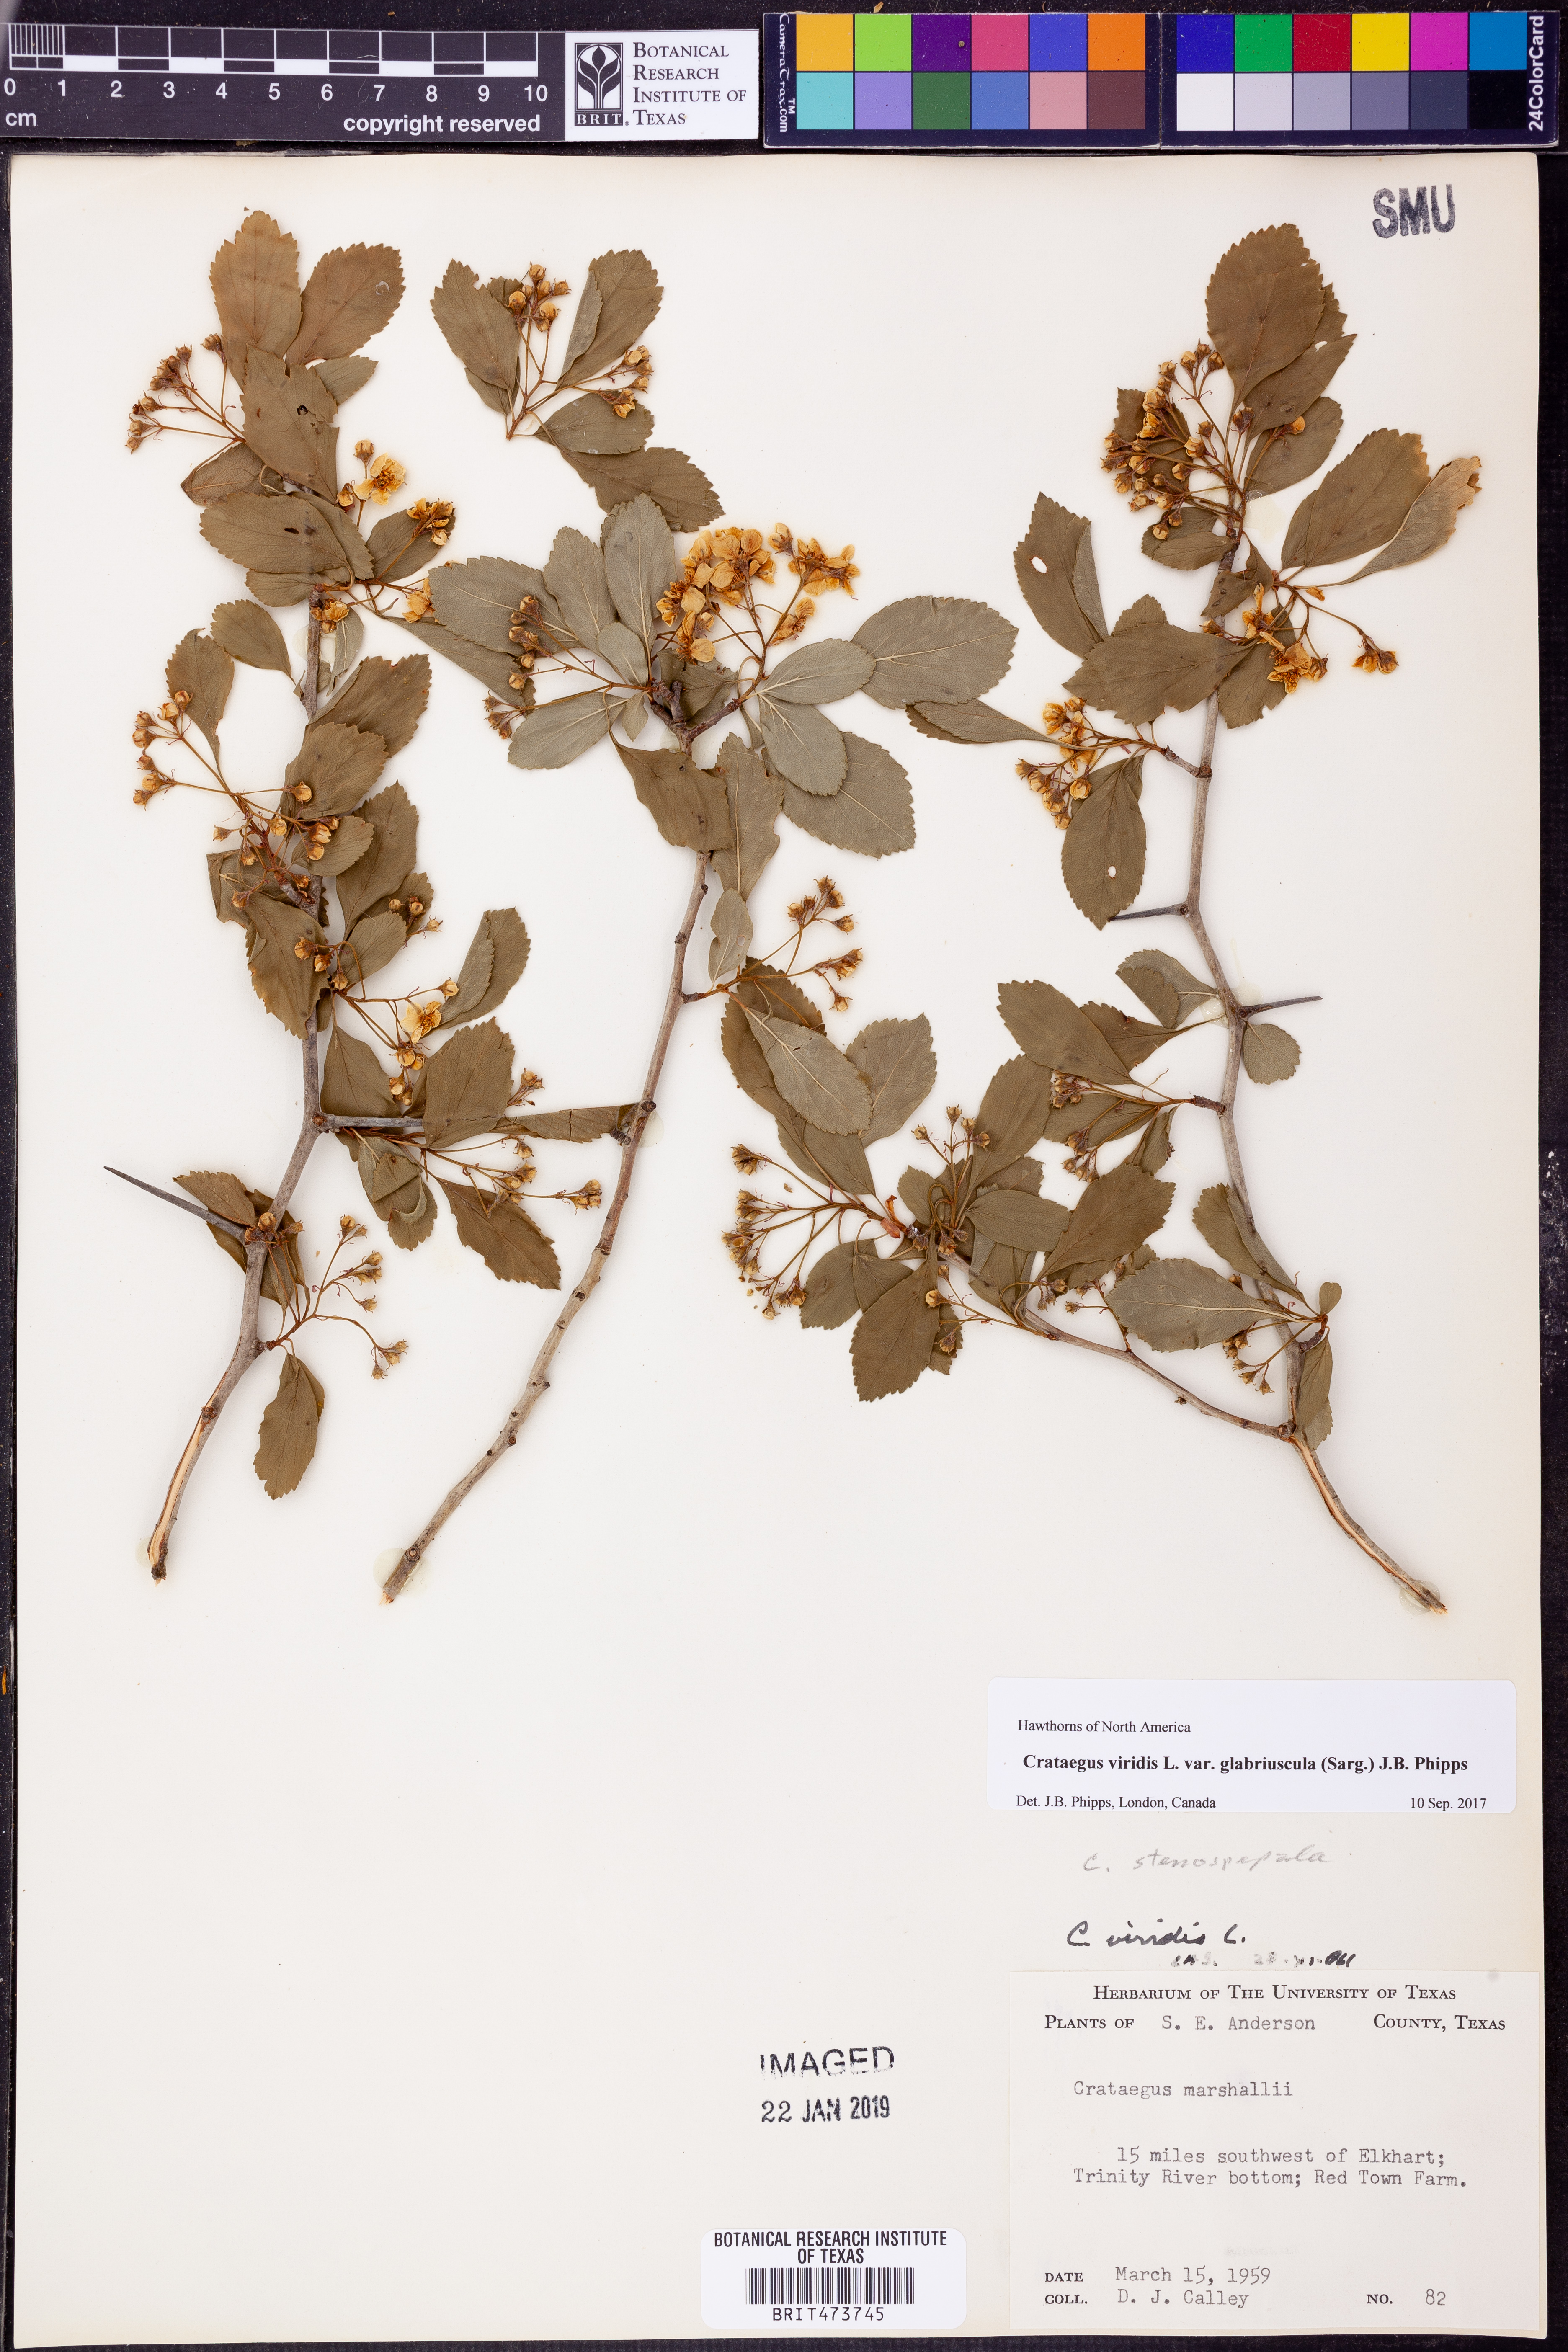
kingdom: Plantae
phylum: Tracheophyta
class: Magnoliopsida
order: Rosales
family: Rosaceae
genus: Crataegus
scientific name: Crataegus viridis
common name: Southernthorn
